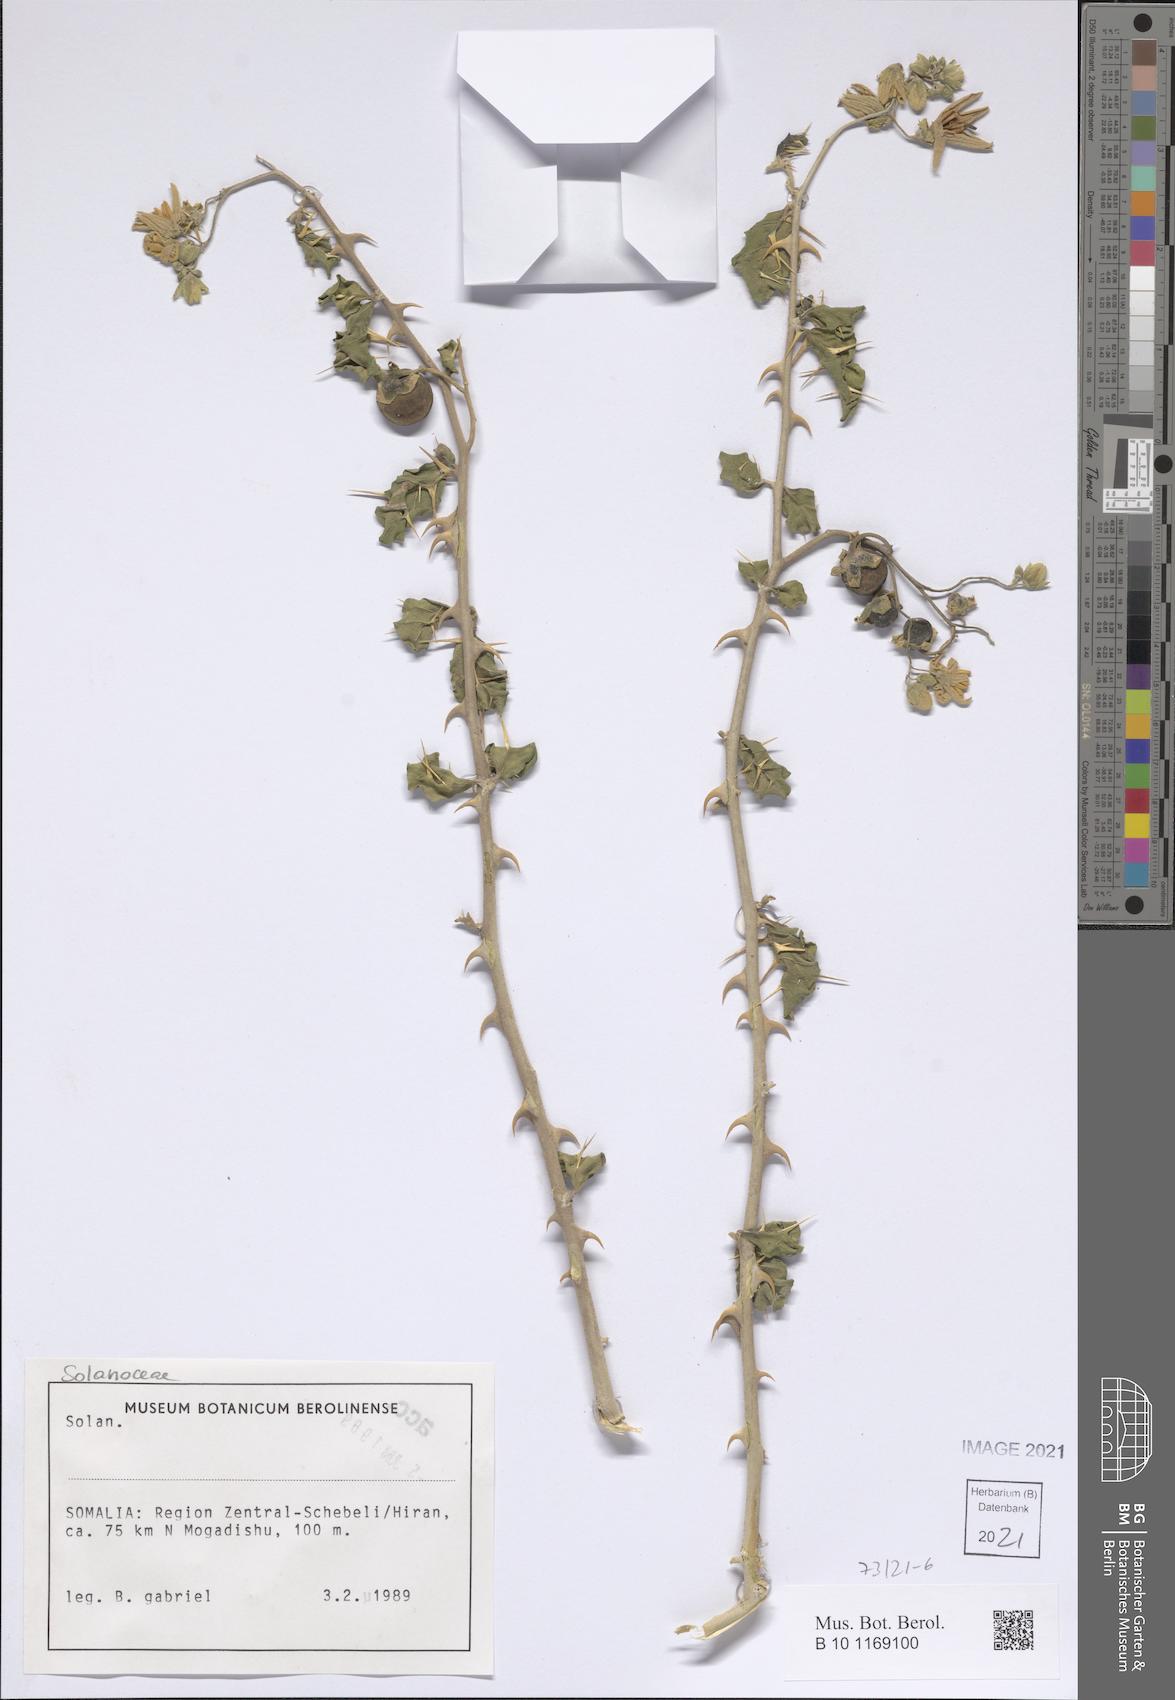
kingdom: Plantae
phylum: Tracheophyta
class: Magnoliopsida
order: Solanales
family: Solanaceae
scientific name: Solanaceae
